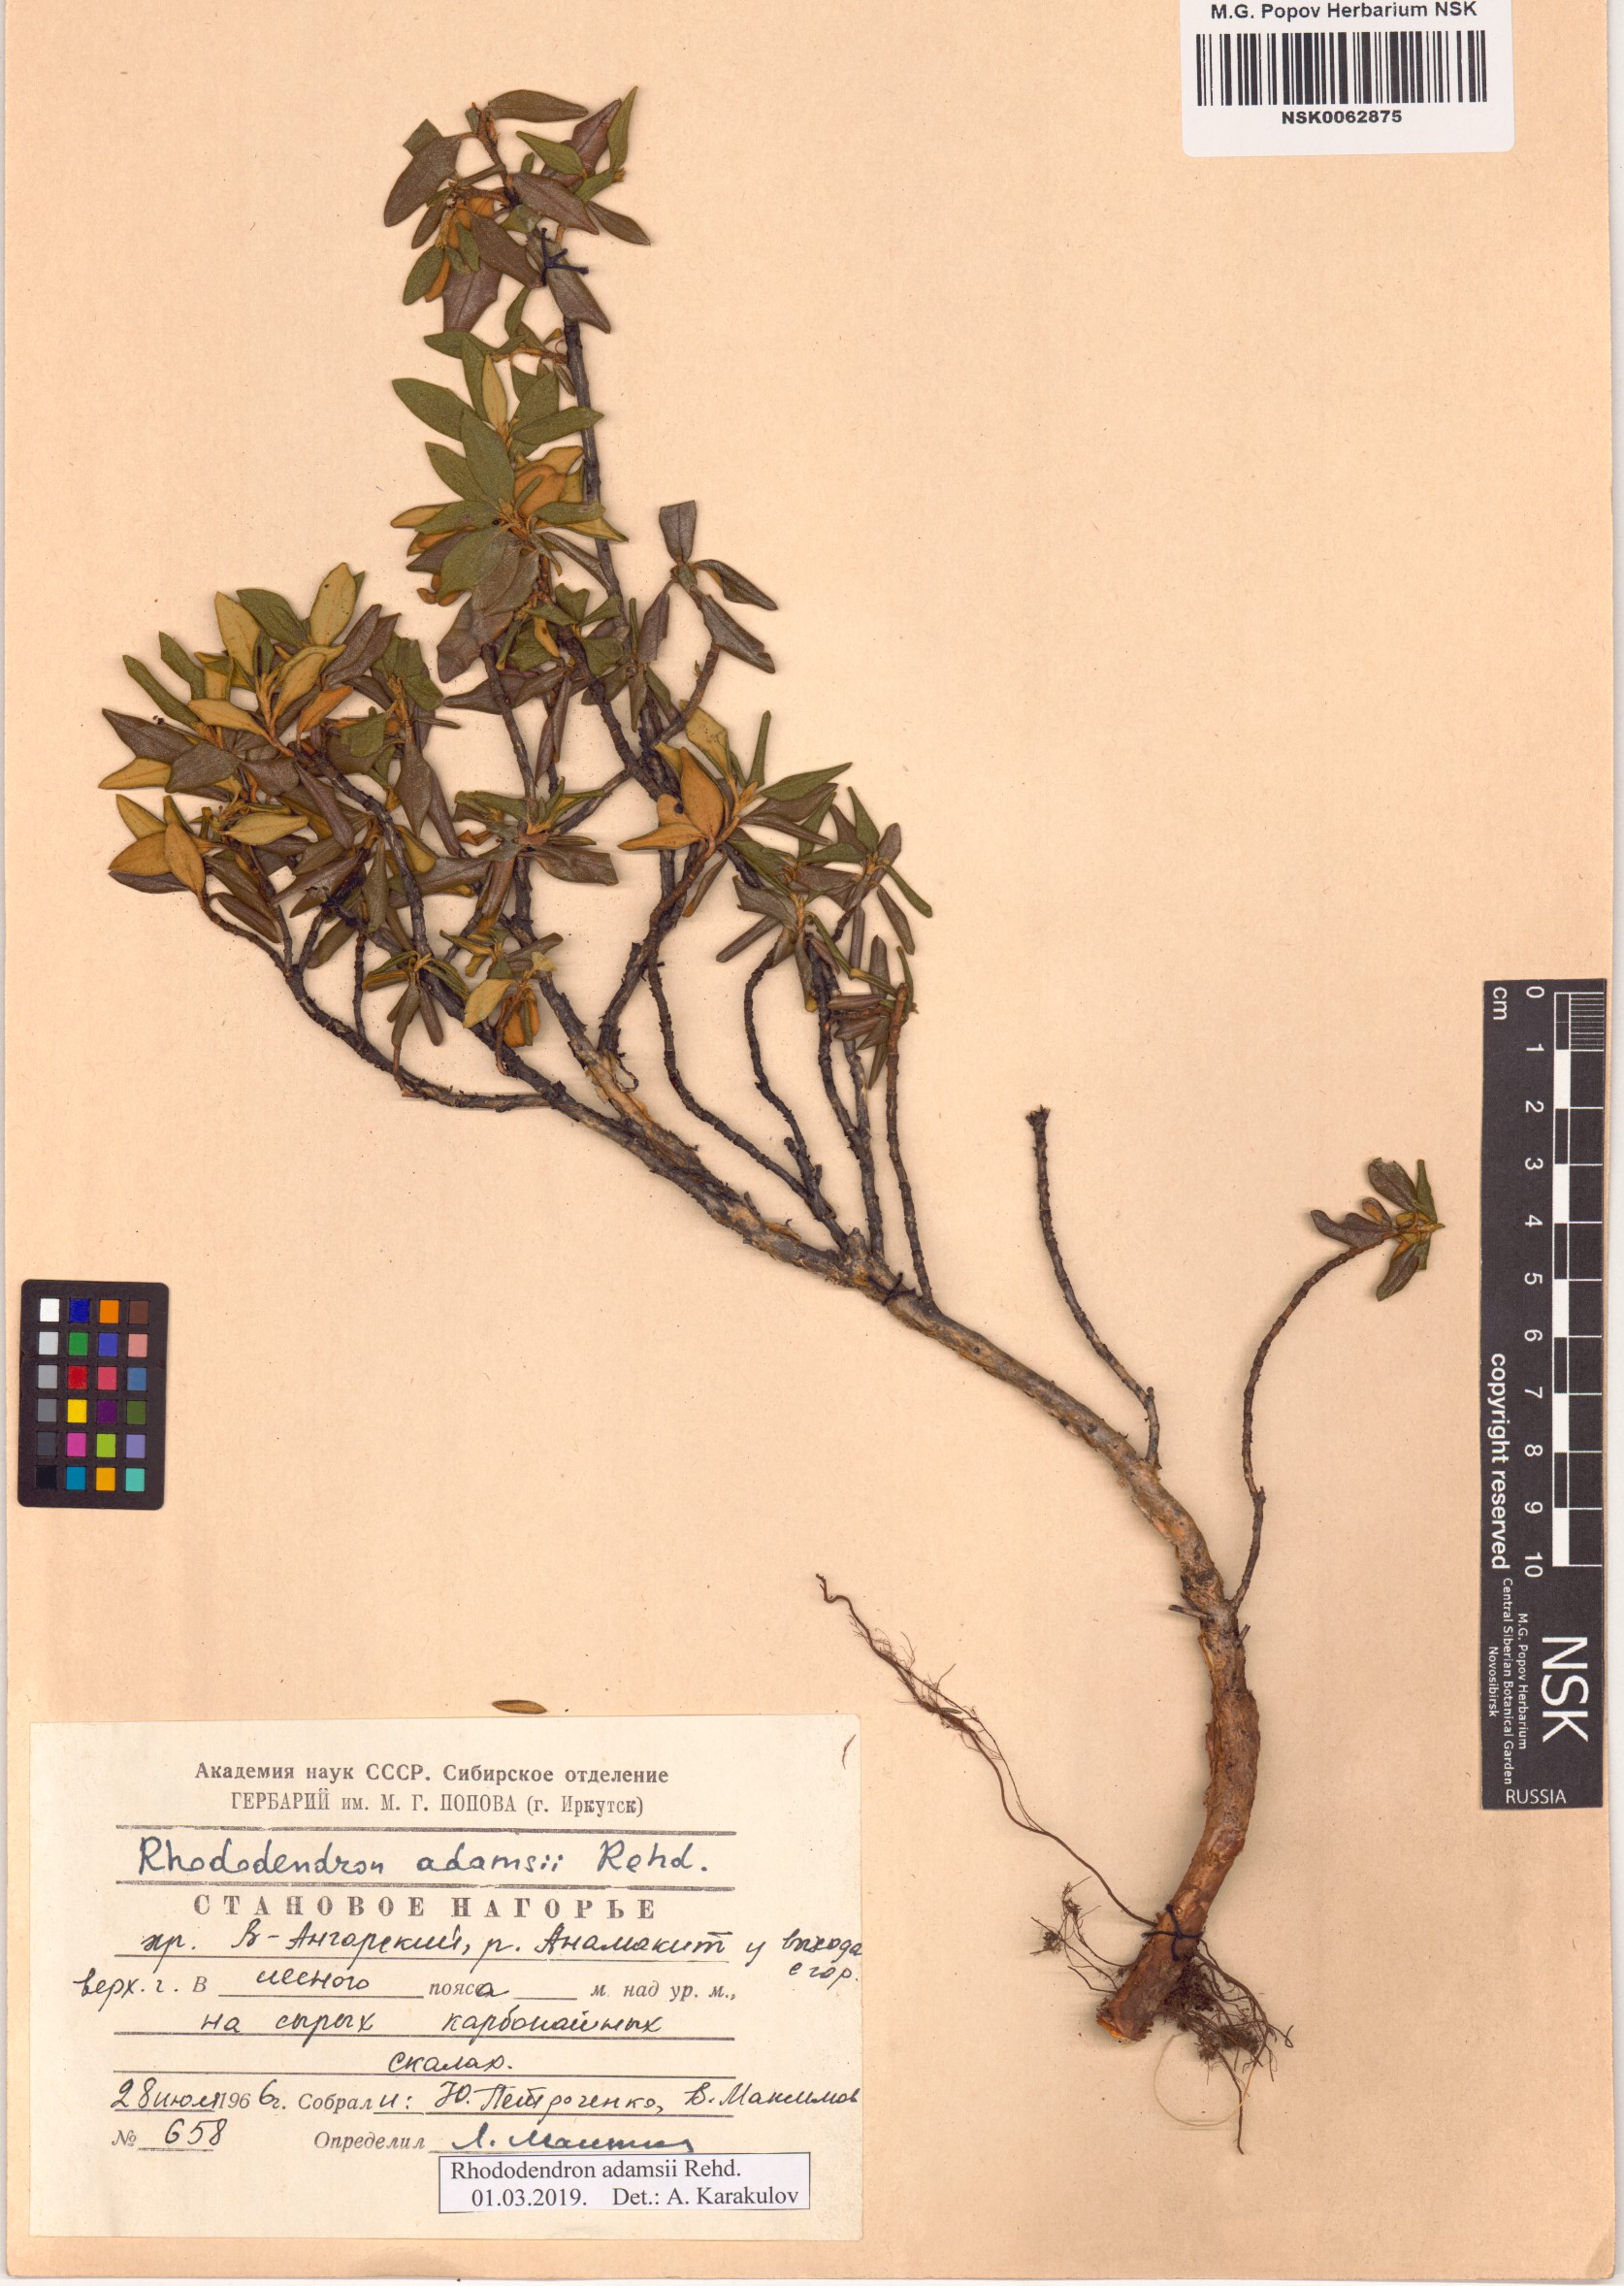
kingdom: Plantae
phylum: Tracheophyta
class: Magnoliopsida
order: Ericales
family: Ericaceae
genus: Rhododendron
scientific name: Rhododendron adamsii
